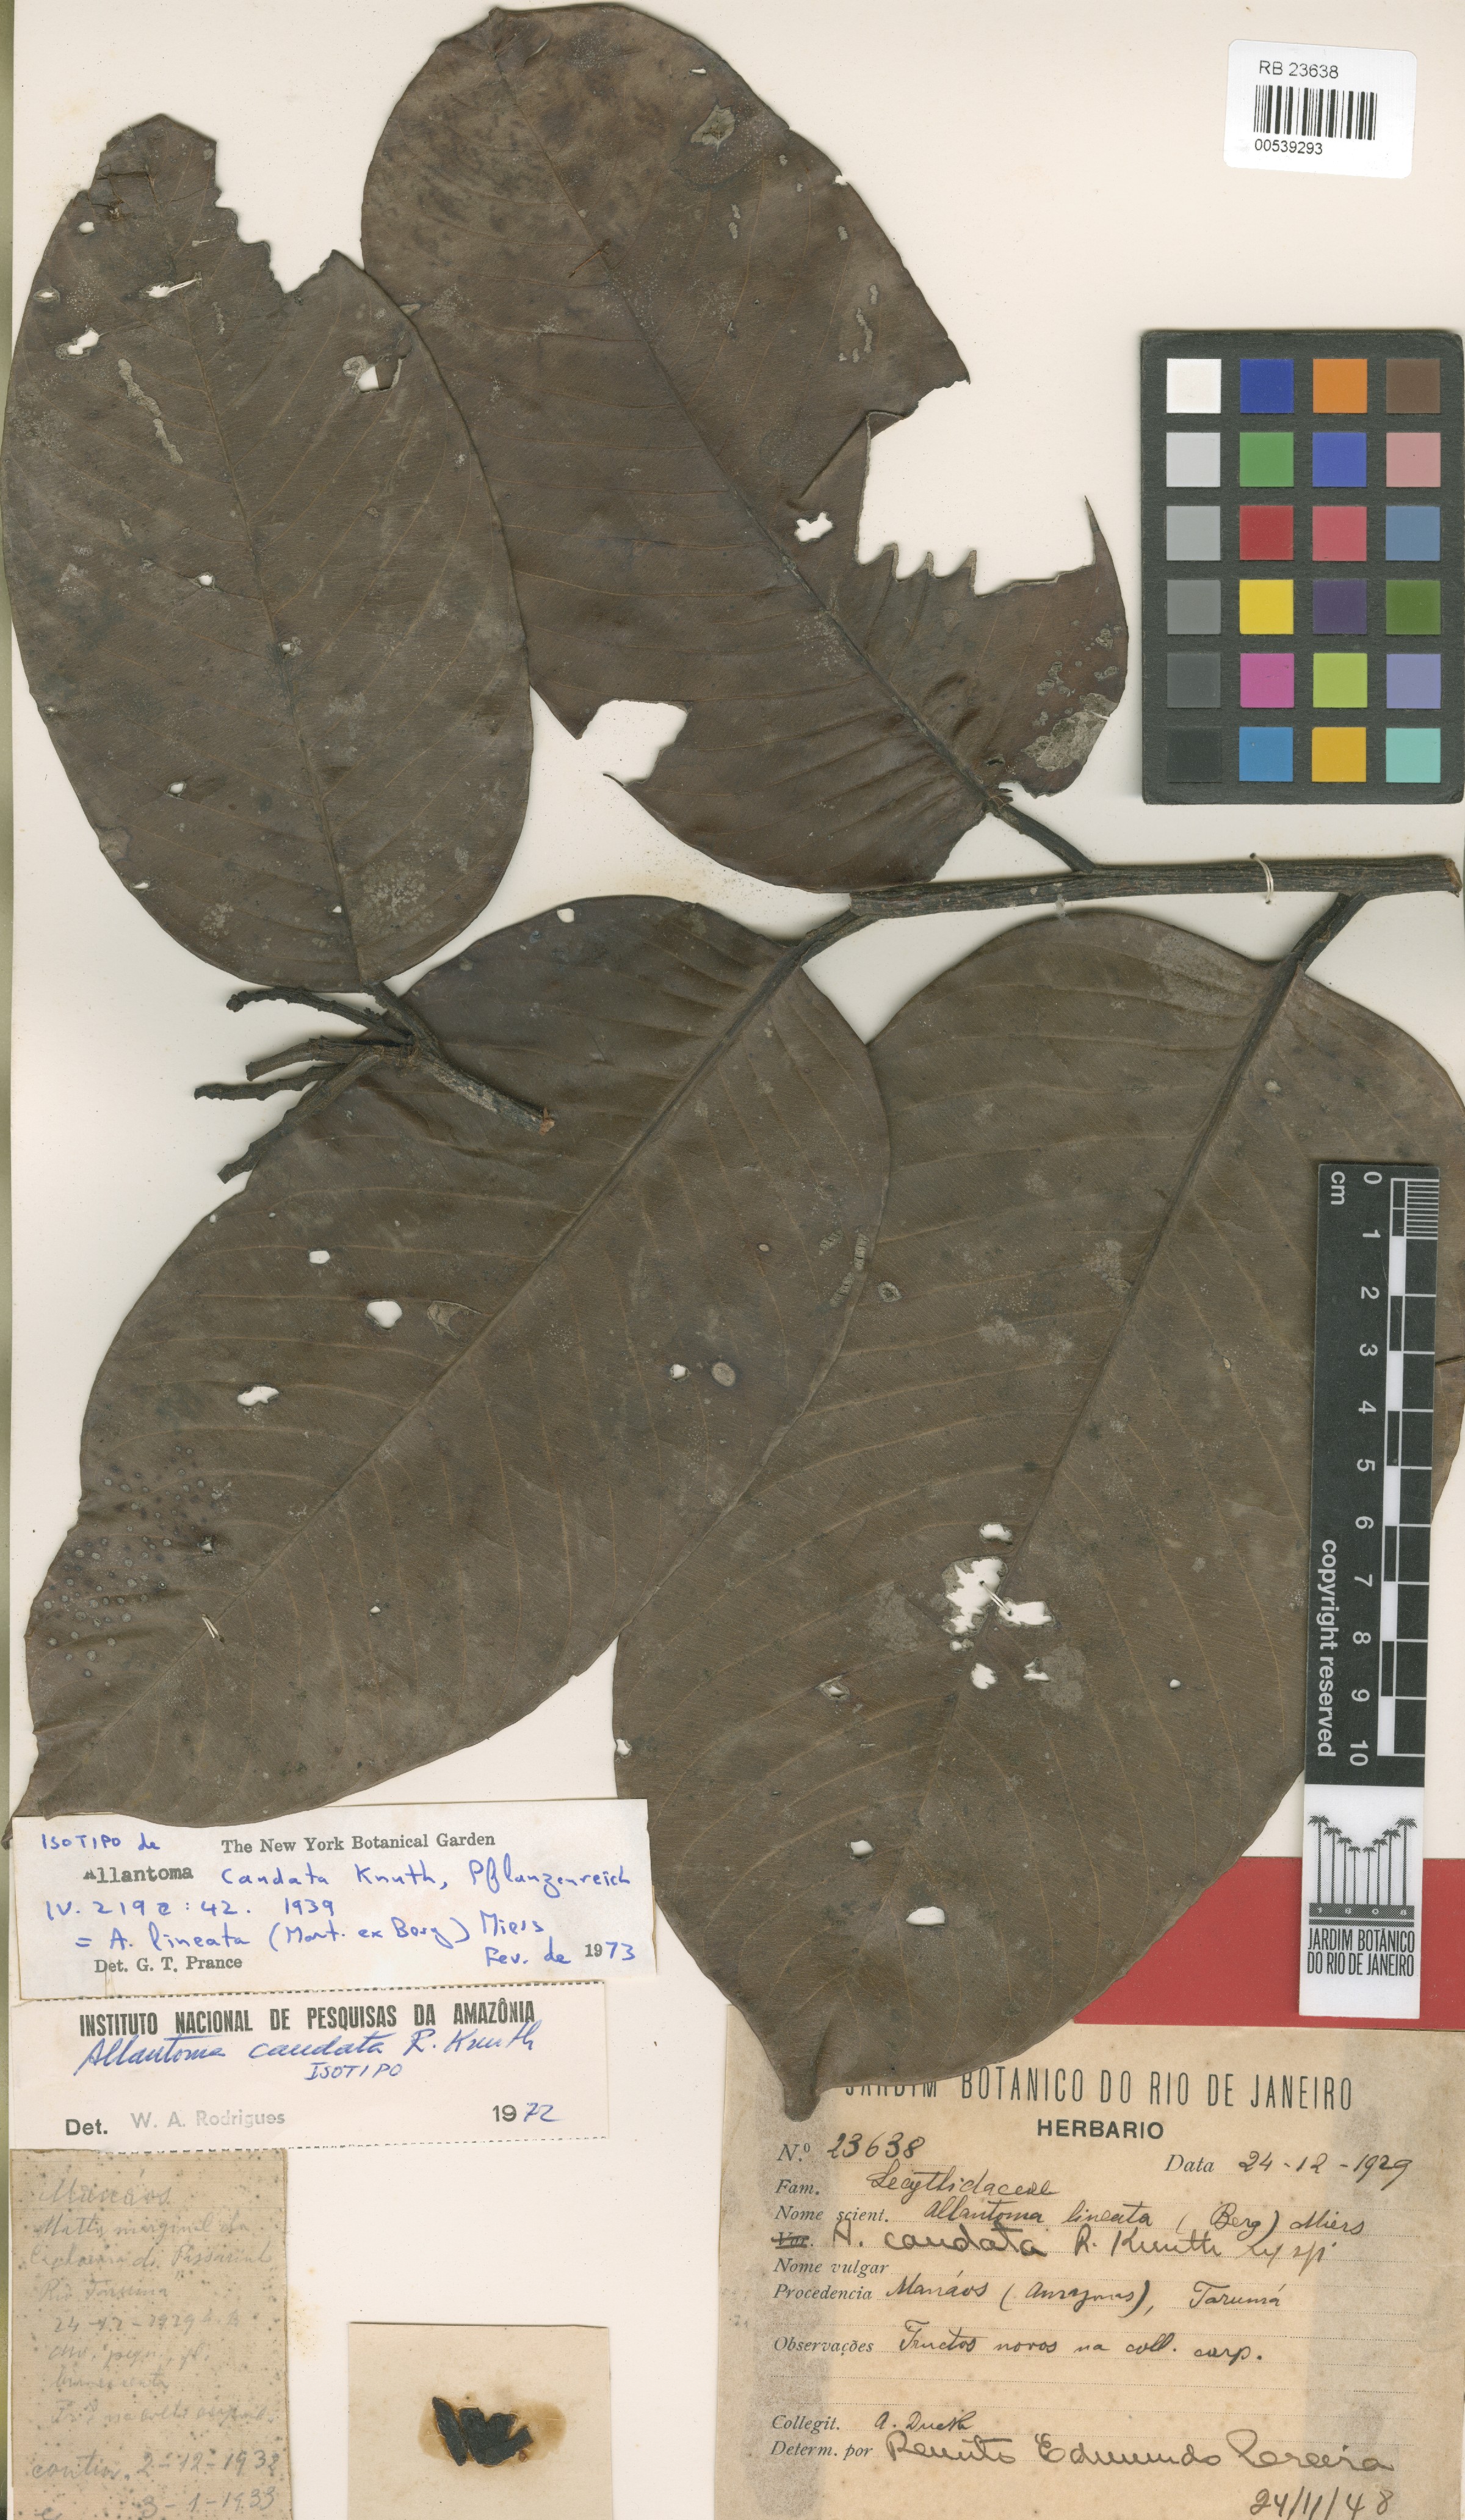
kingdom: Plantae
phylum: Tracheophyta
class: Magnoliopsida
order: Ericales
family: Lecythidaceae
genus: Allantoma
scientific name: Allantoma lineata
